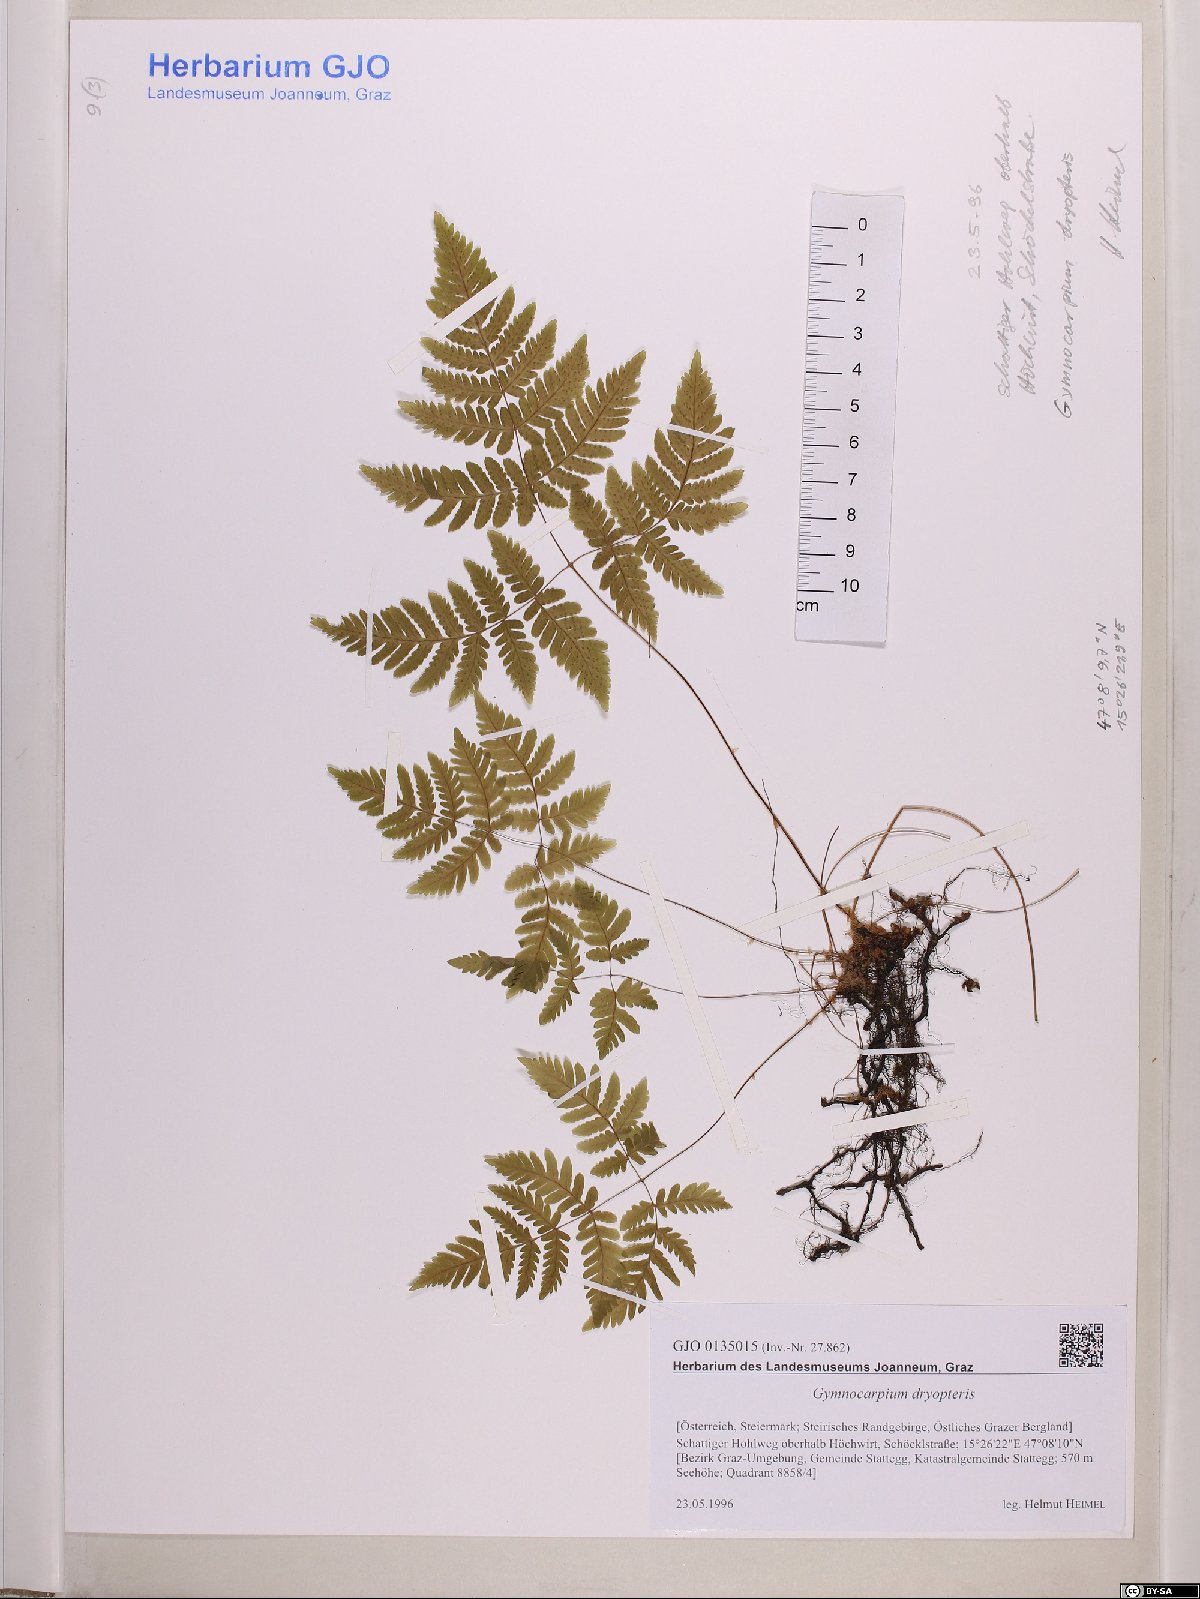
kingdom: Plantae
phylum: Tracheophyta
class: Polypodiopsida
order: Polypodiales
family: Cystopteridaceae
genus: Gymnocarpium
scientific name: Gymnocarpium dryopteris
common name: Oak fern
